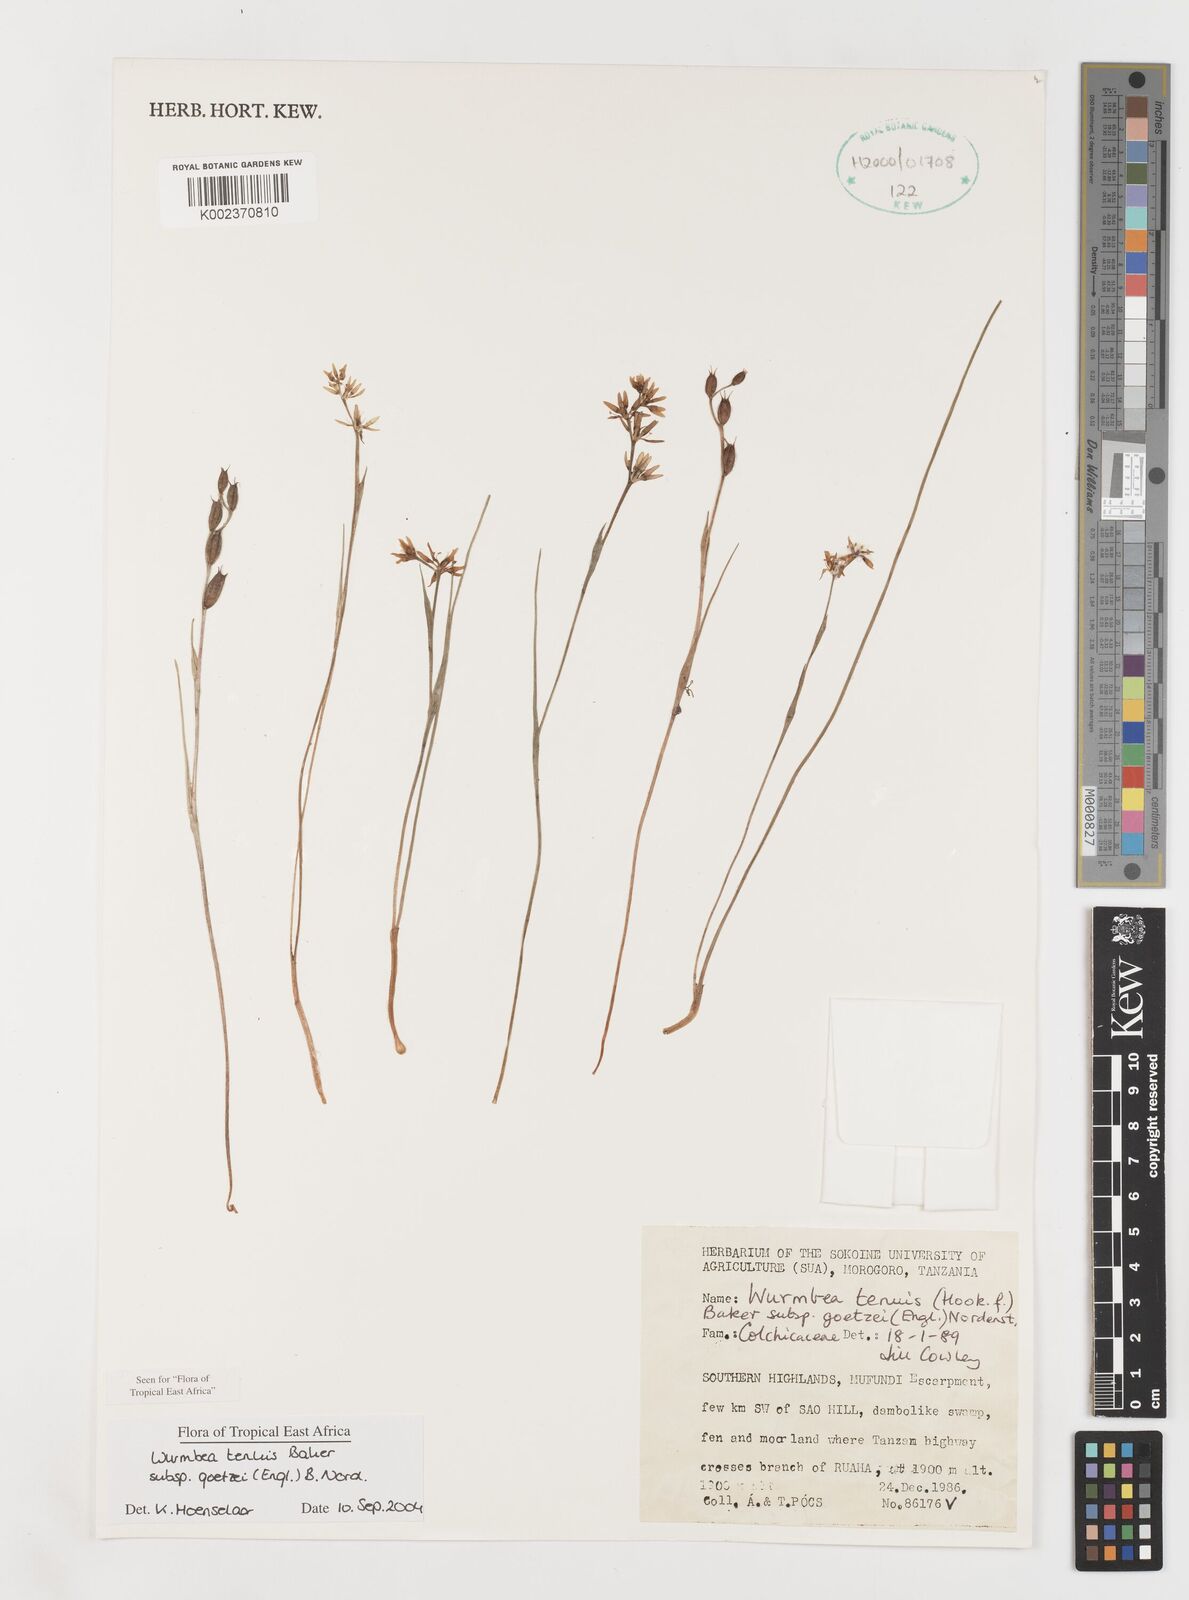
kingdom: Plantae
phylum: Tracheophyta
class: Liliopsida
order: Liliales
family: Colchicaceae
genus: Wurmbea
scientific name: Wurmbea tenuis
